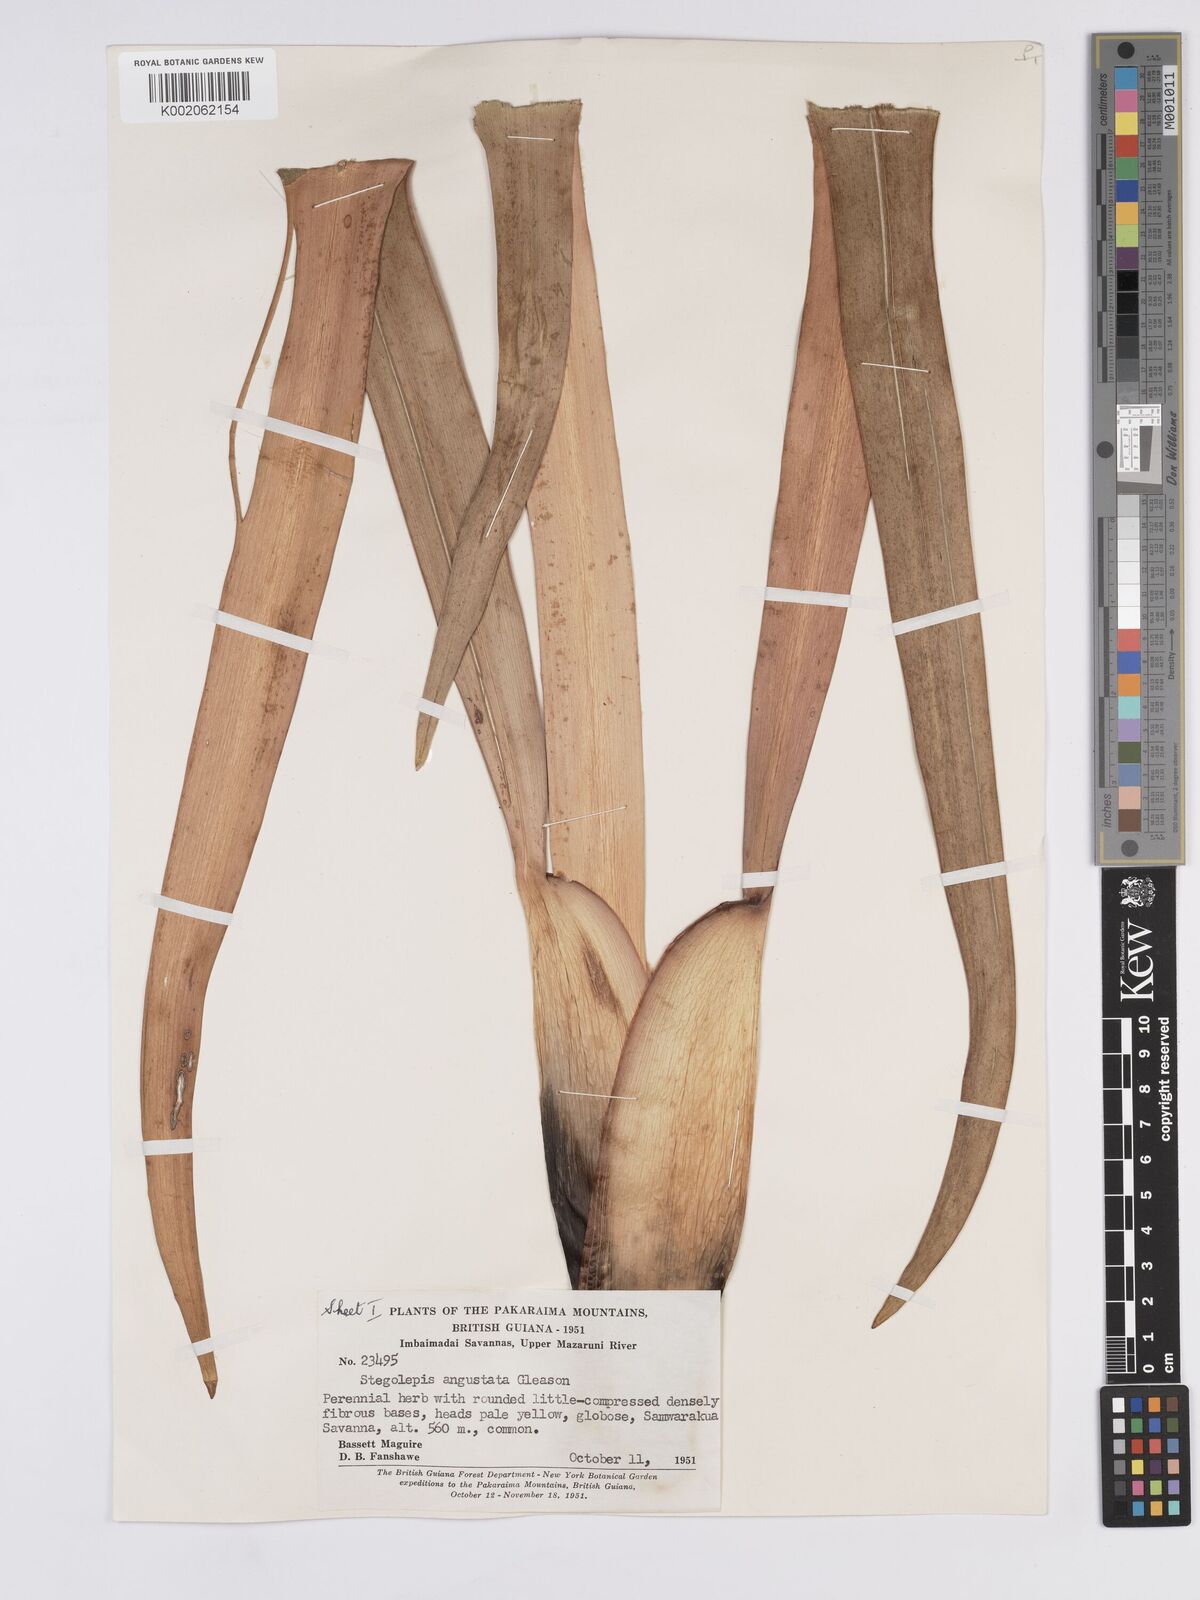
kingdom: Plantae
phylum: Tracheophyta
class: Liliopsida
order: Poales
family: Rapateaceae
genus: Stegolepis
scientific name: Stegolepis angustata
